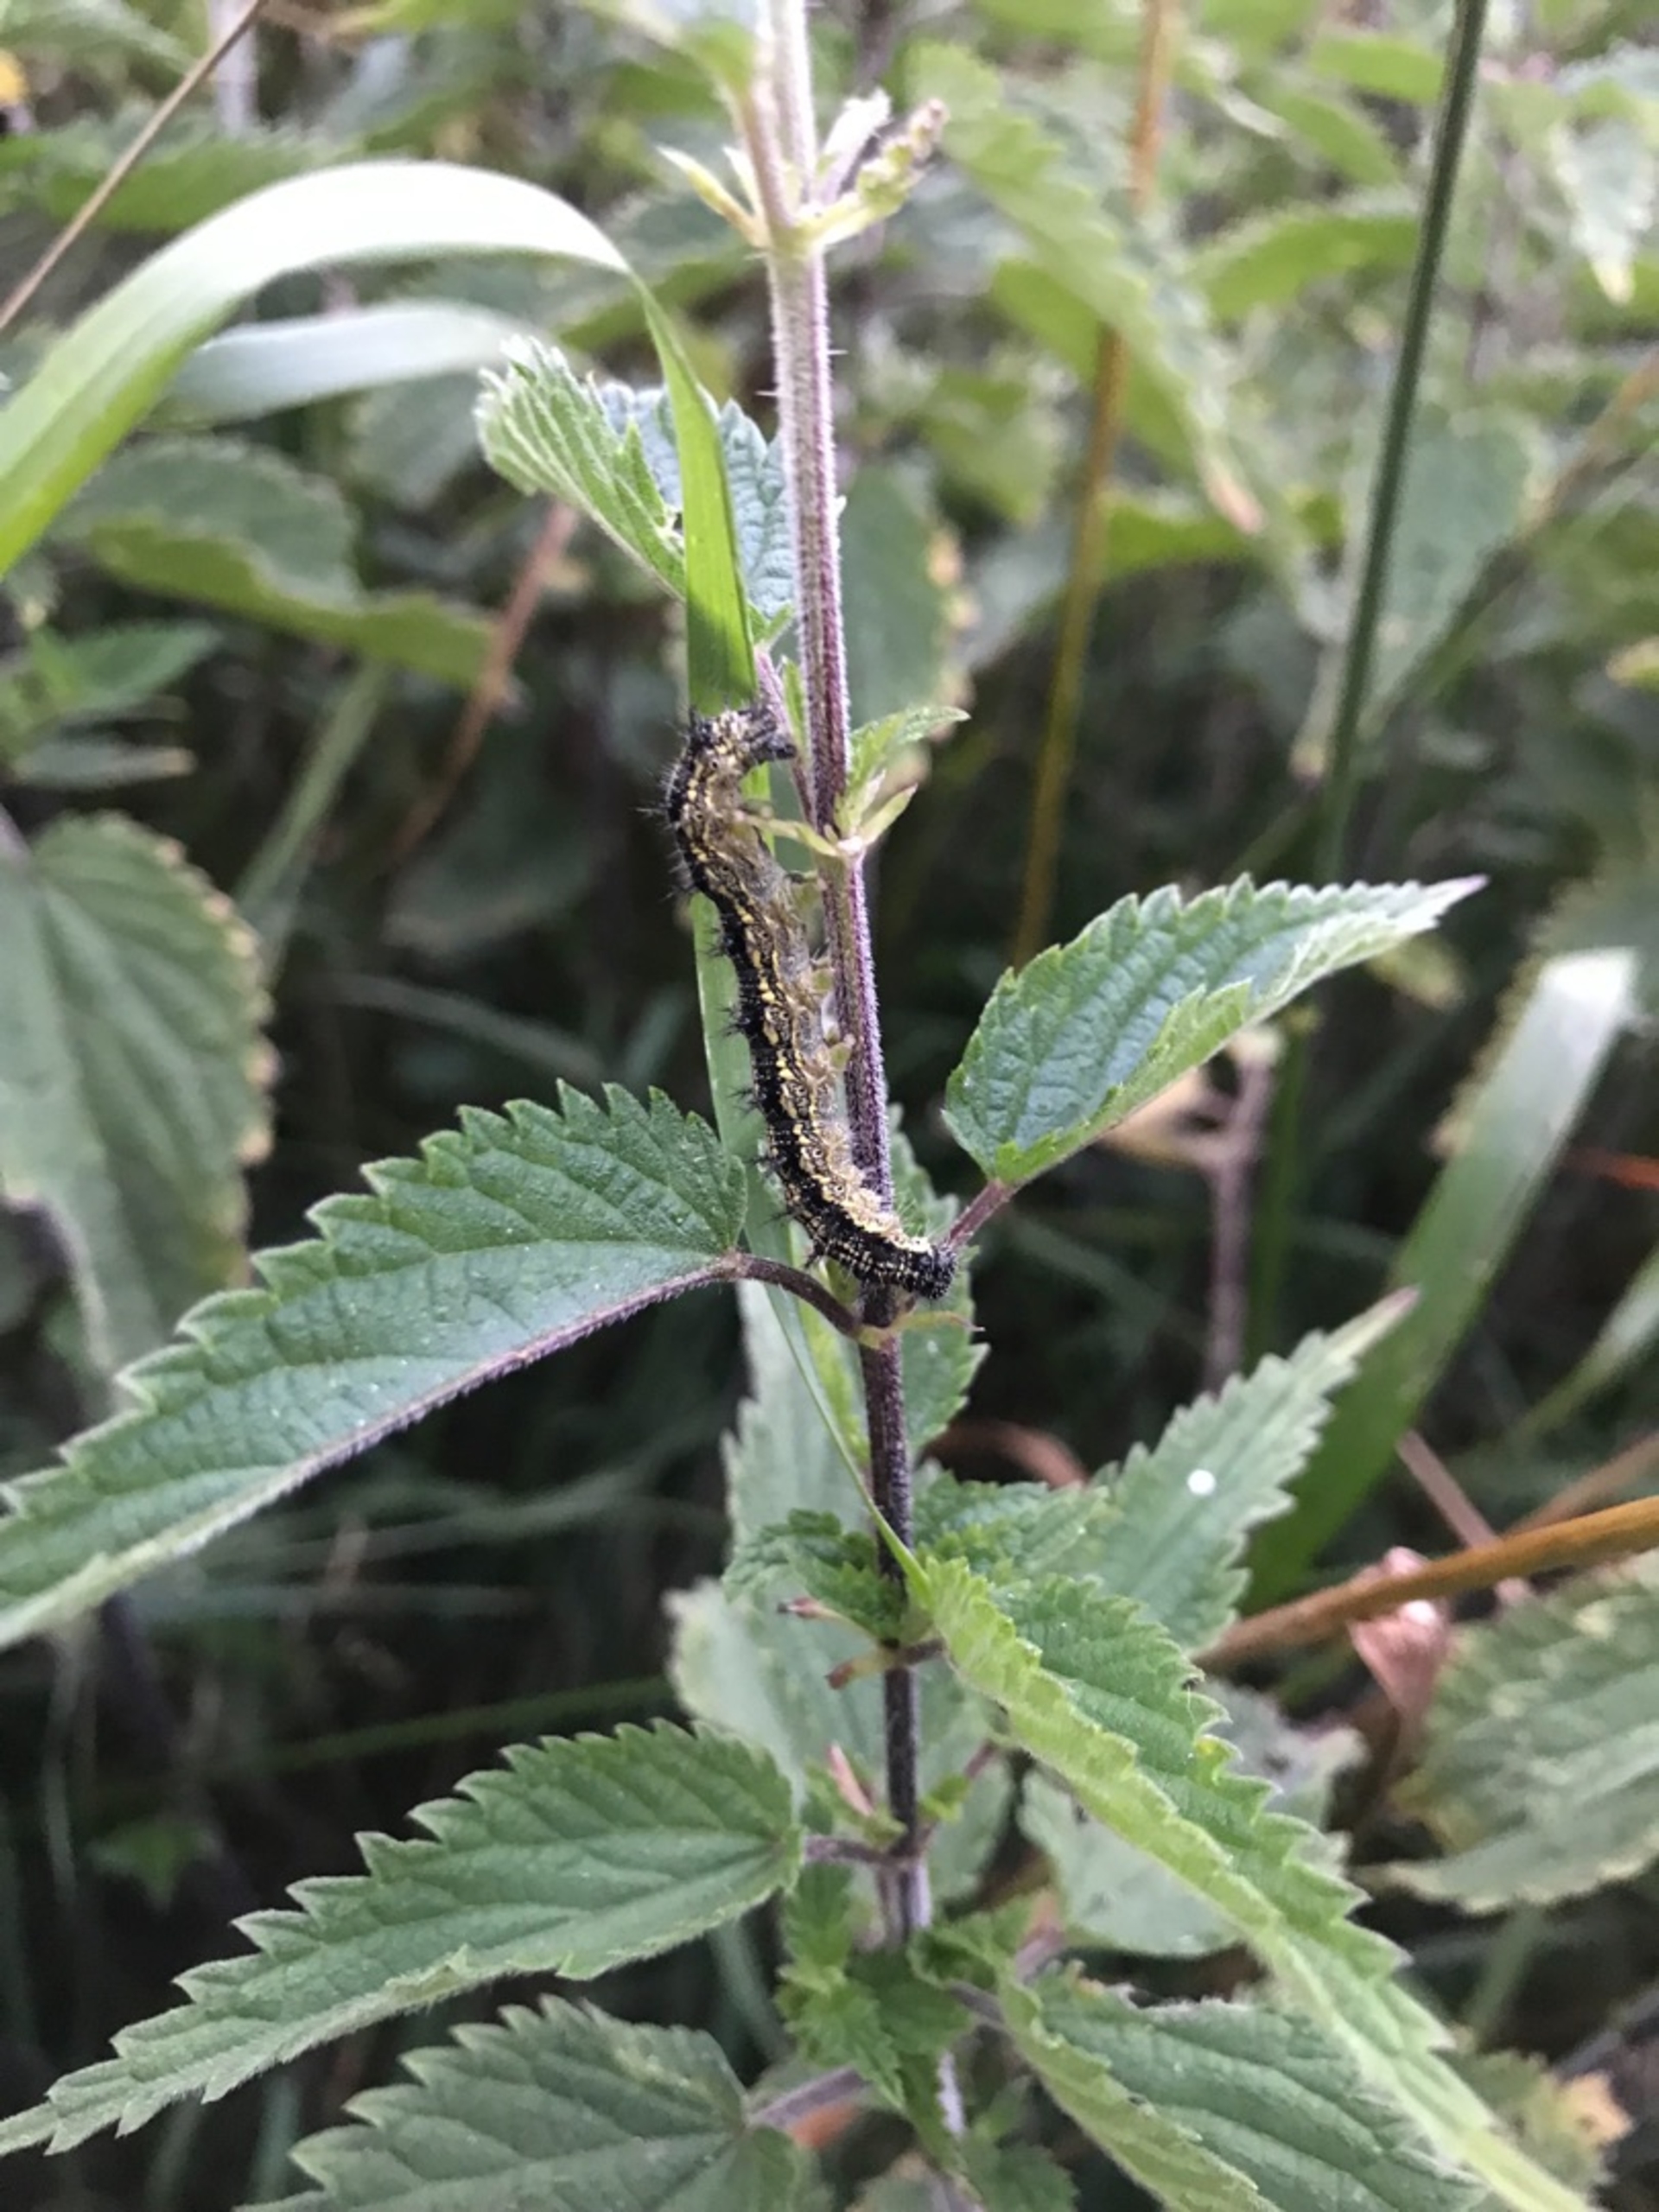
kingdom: Animalia
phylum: Arthropoda
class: Insecta
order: Lepidoptera
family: Nymphalidae
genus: Aglais
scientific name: Aglais urticae
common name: Nældens takvinge
